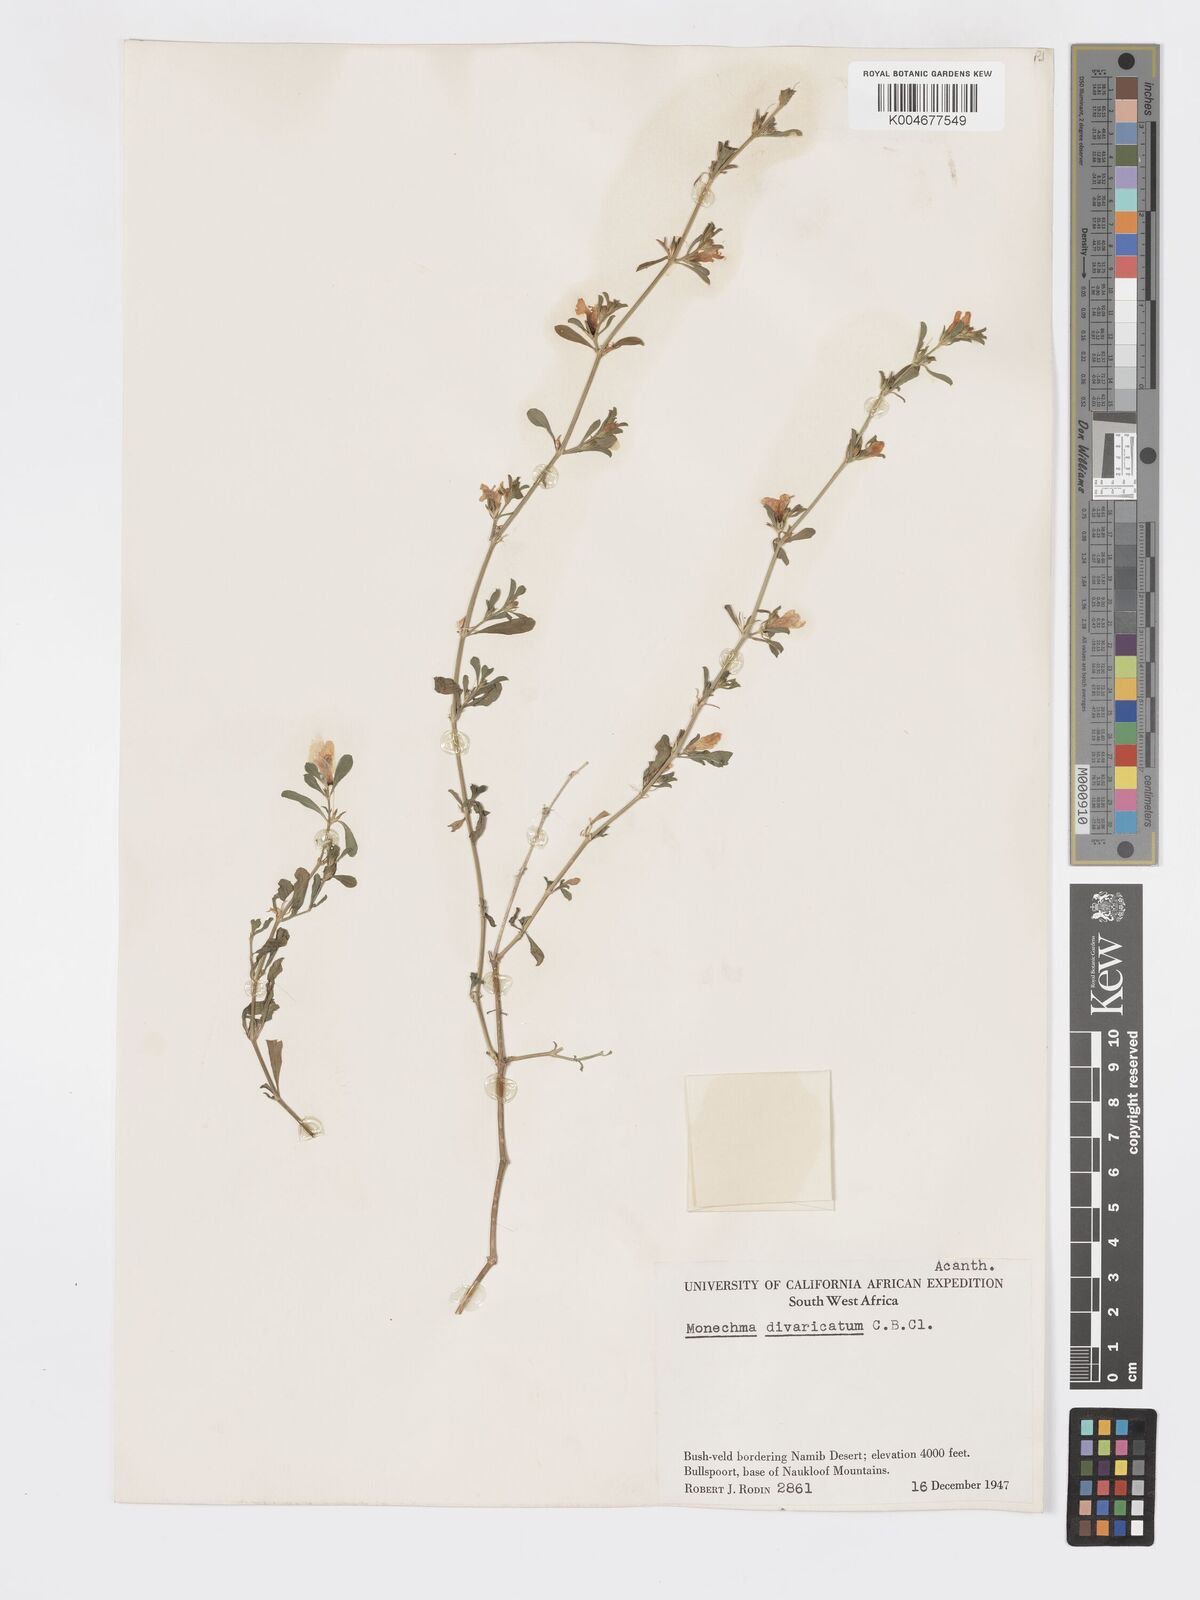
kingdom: Plantae
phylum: Tracheophyta
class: Magnoliopsida
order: Lamiales
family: Acanthaceae
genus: Pogonospermum
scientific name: Pogonospermum
